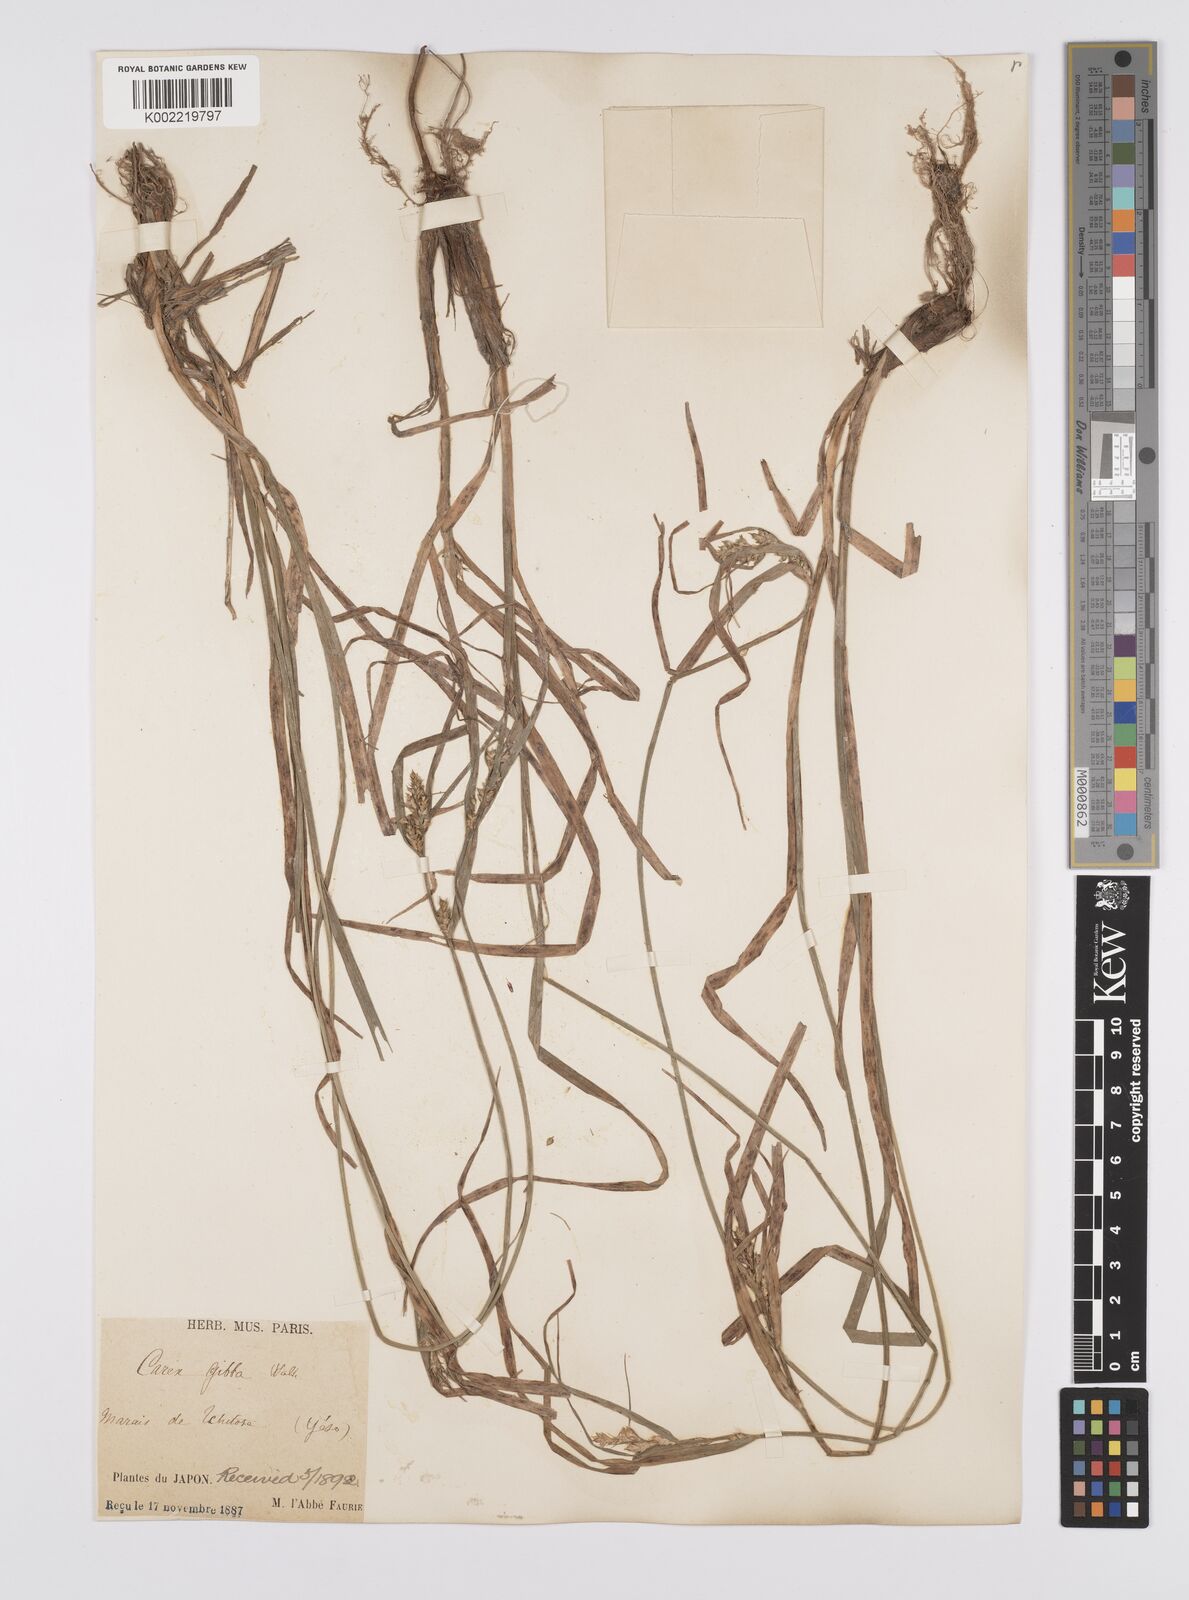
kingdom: Plantae
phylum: Tracheophyta
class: Liliopsida
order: Poales
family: Cyperaceae
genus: Carex
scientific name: Carex gibba
